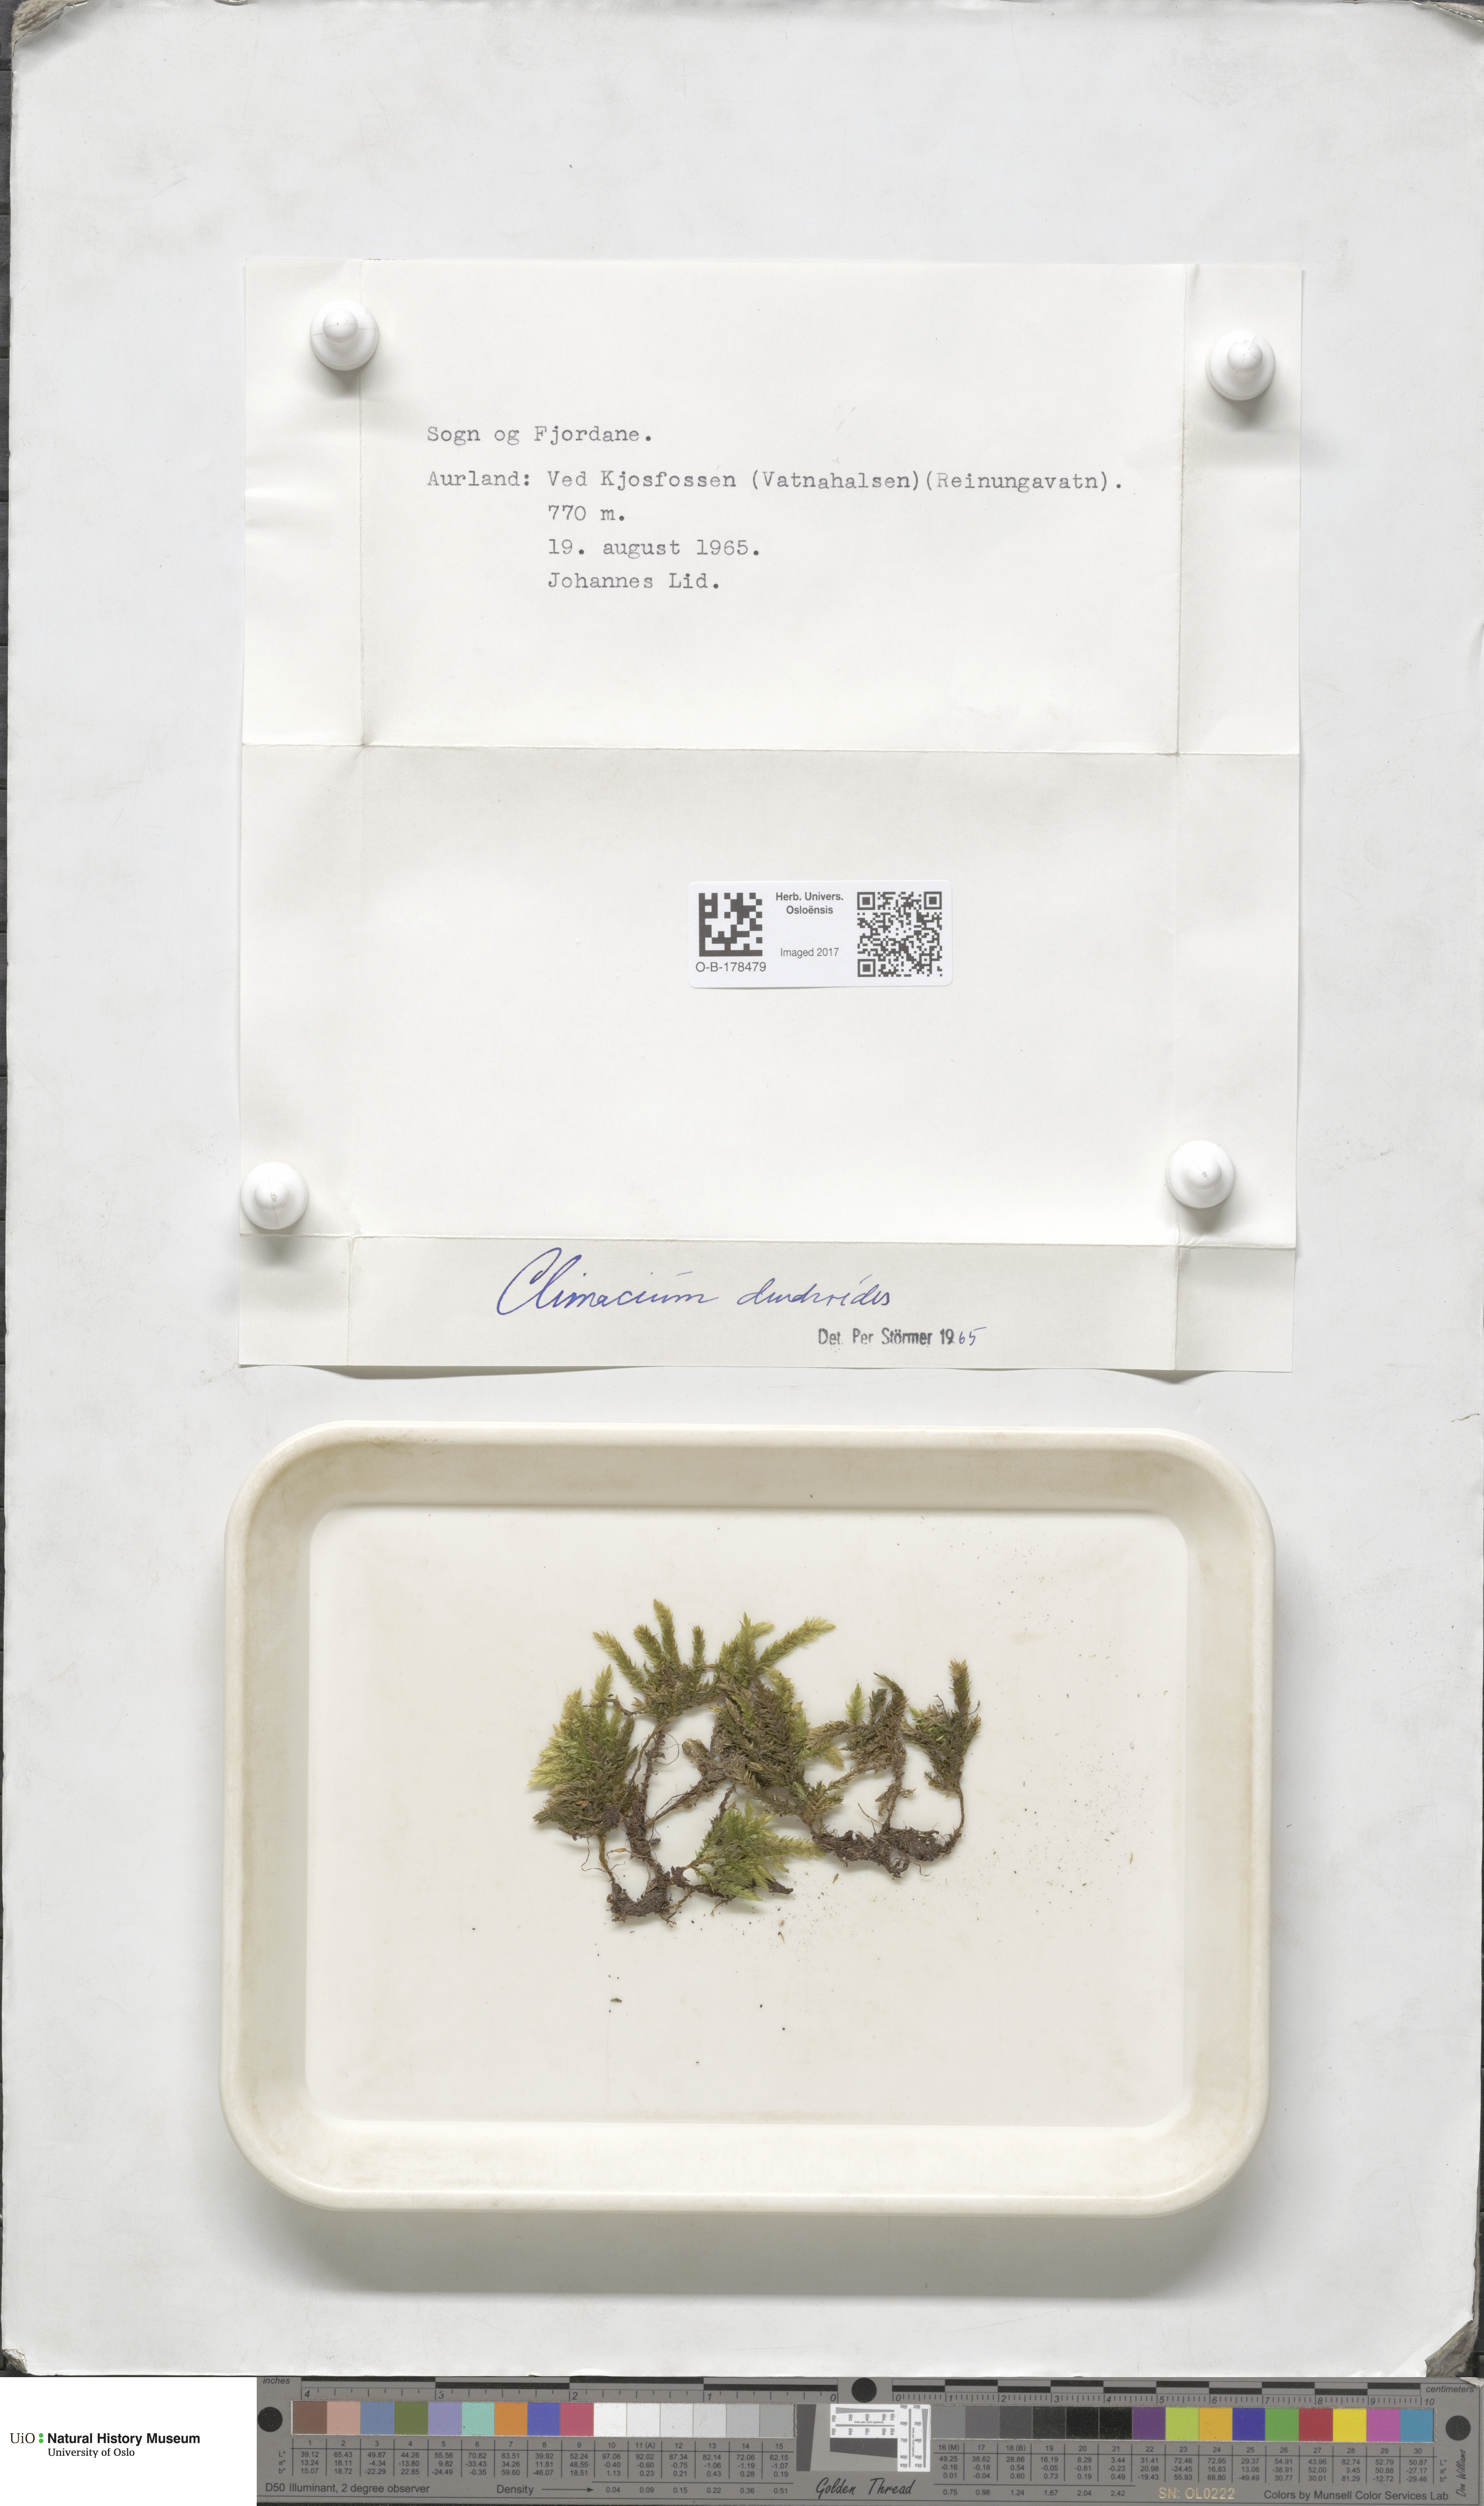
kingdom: Plantae
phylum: Bryophyta
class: Bryopsida
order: Hypnales
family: Climaciaceae
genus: Climacium
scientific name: Climacium dendroides
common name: Northern tree moss
